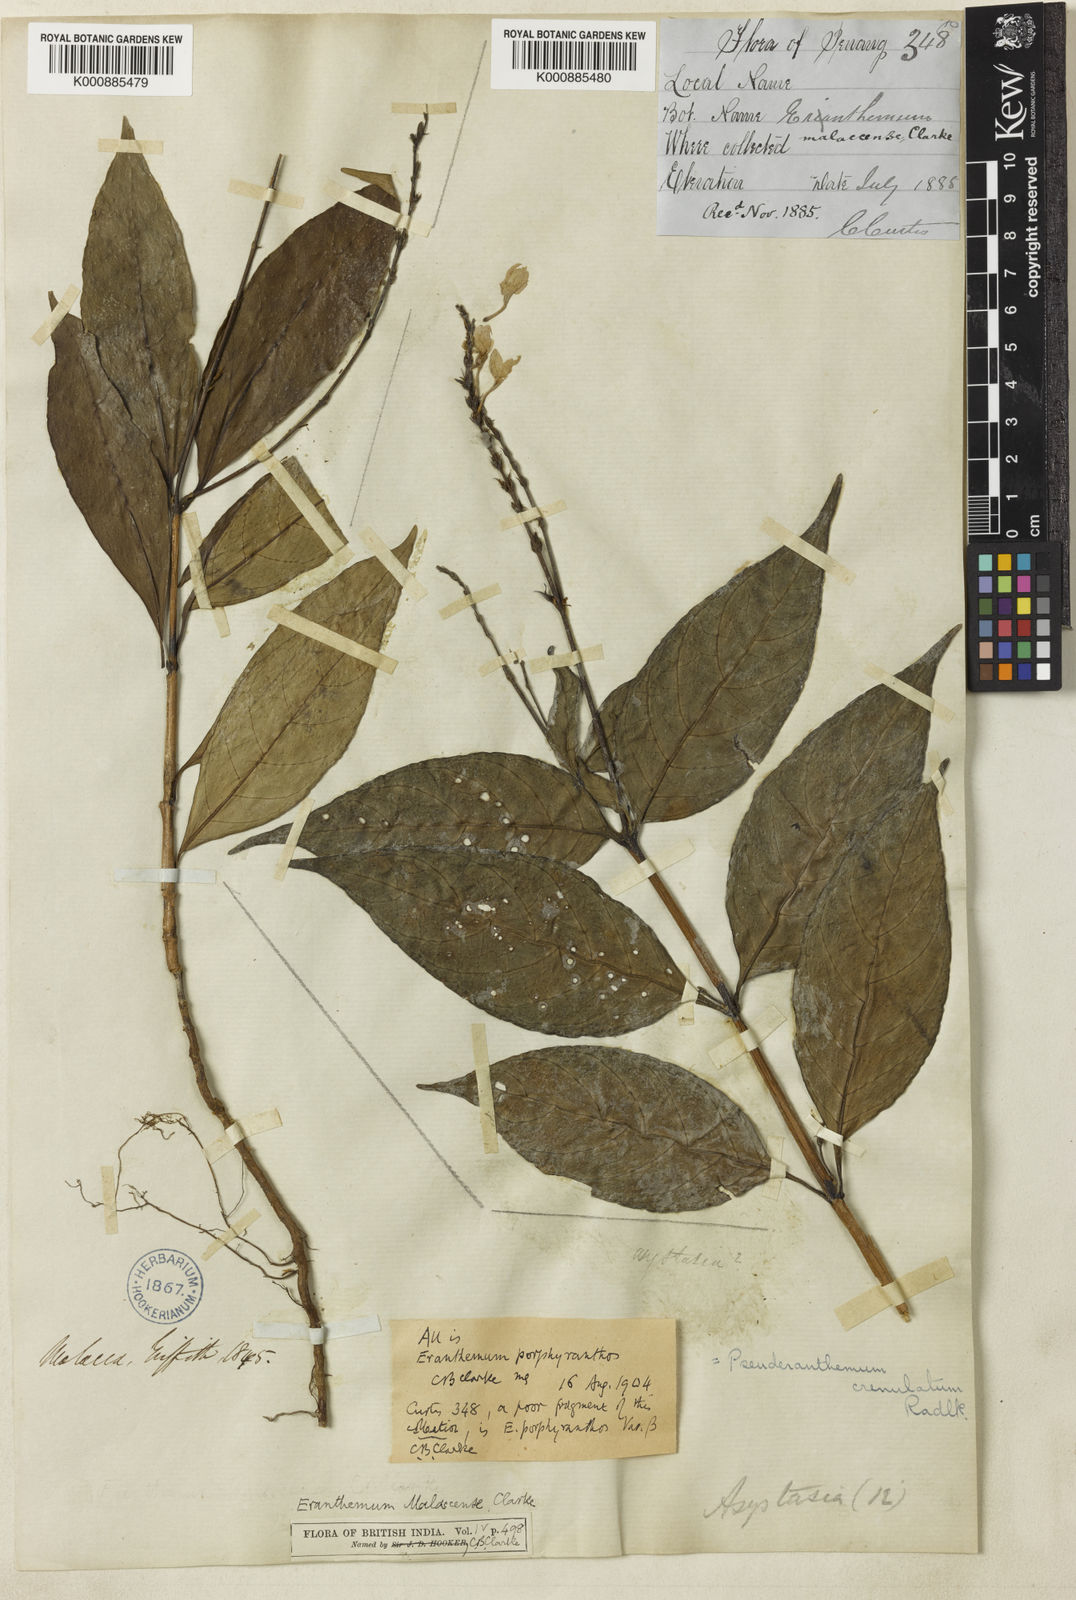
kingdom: Plantae
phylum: Tracheophyta
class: Magnoliopsida
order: Lamiales
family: Acanthaceae
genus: Pseuderanthemum
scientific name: Pseuderanthemum
